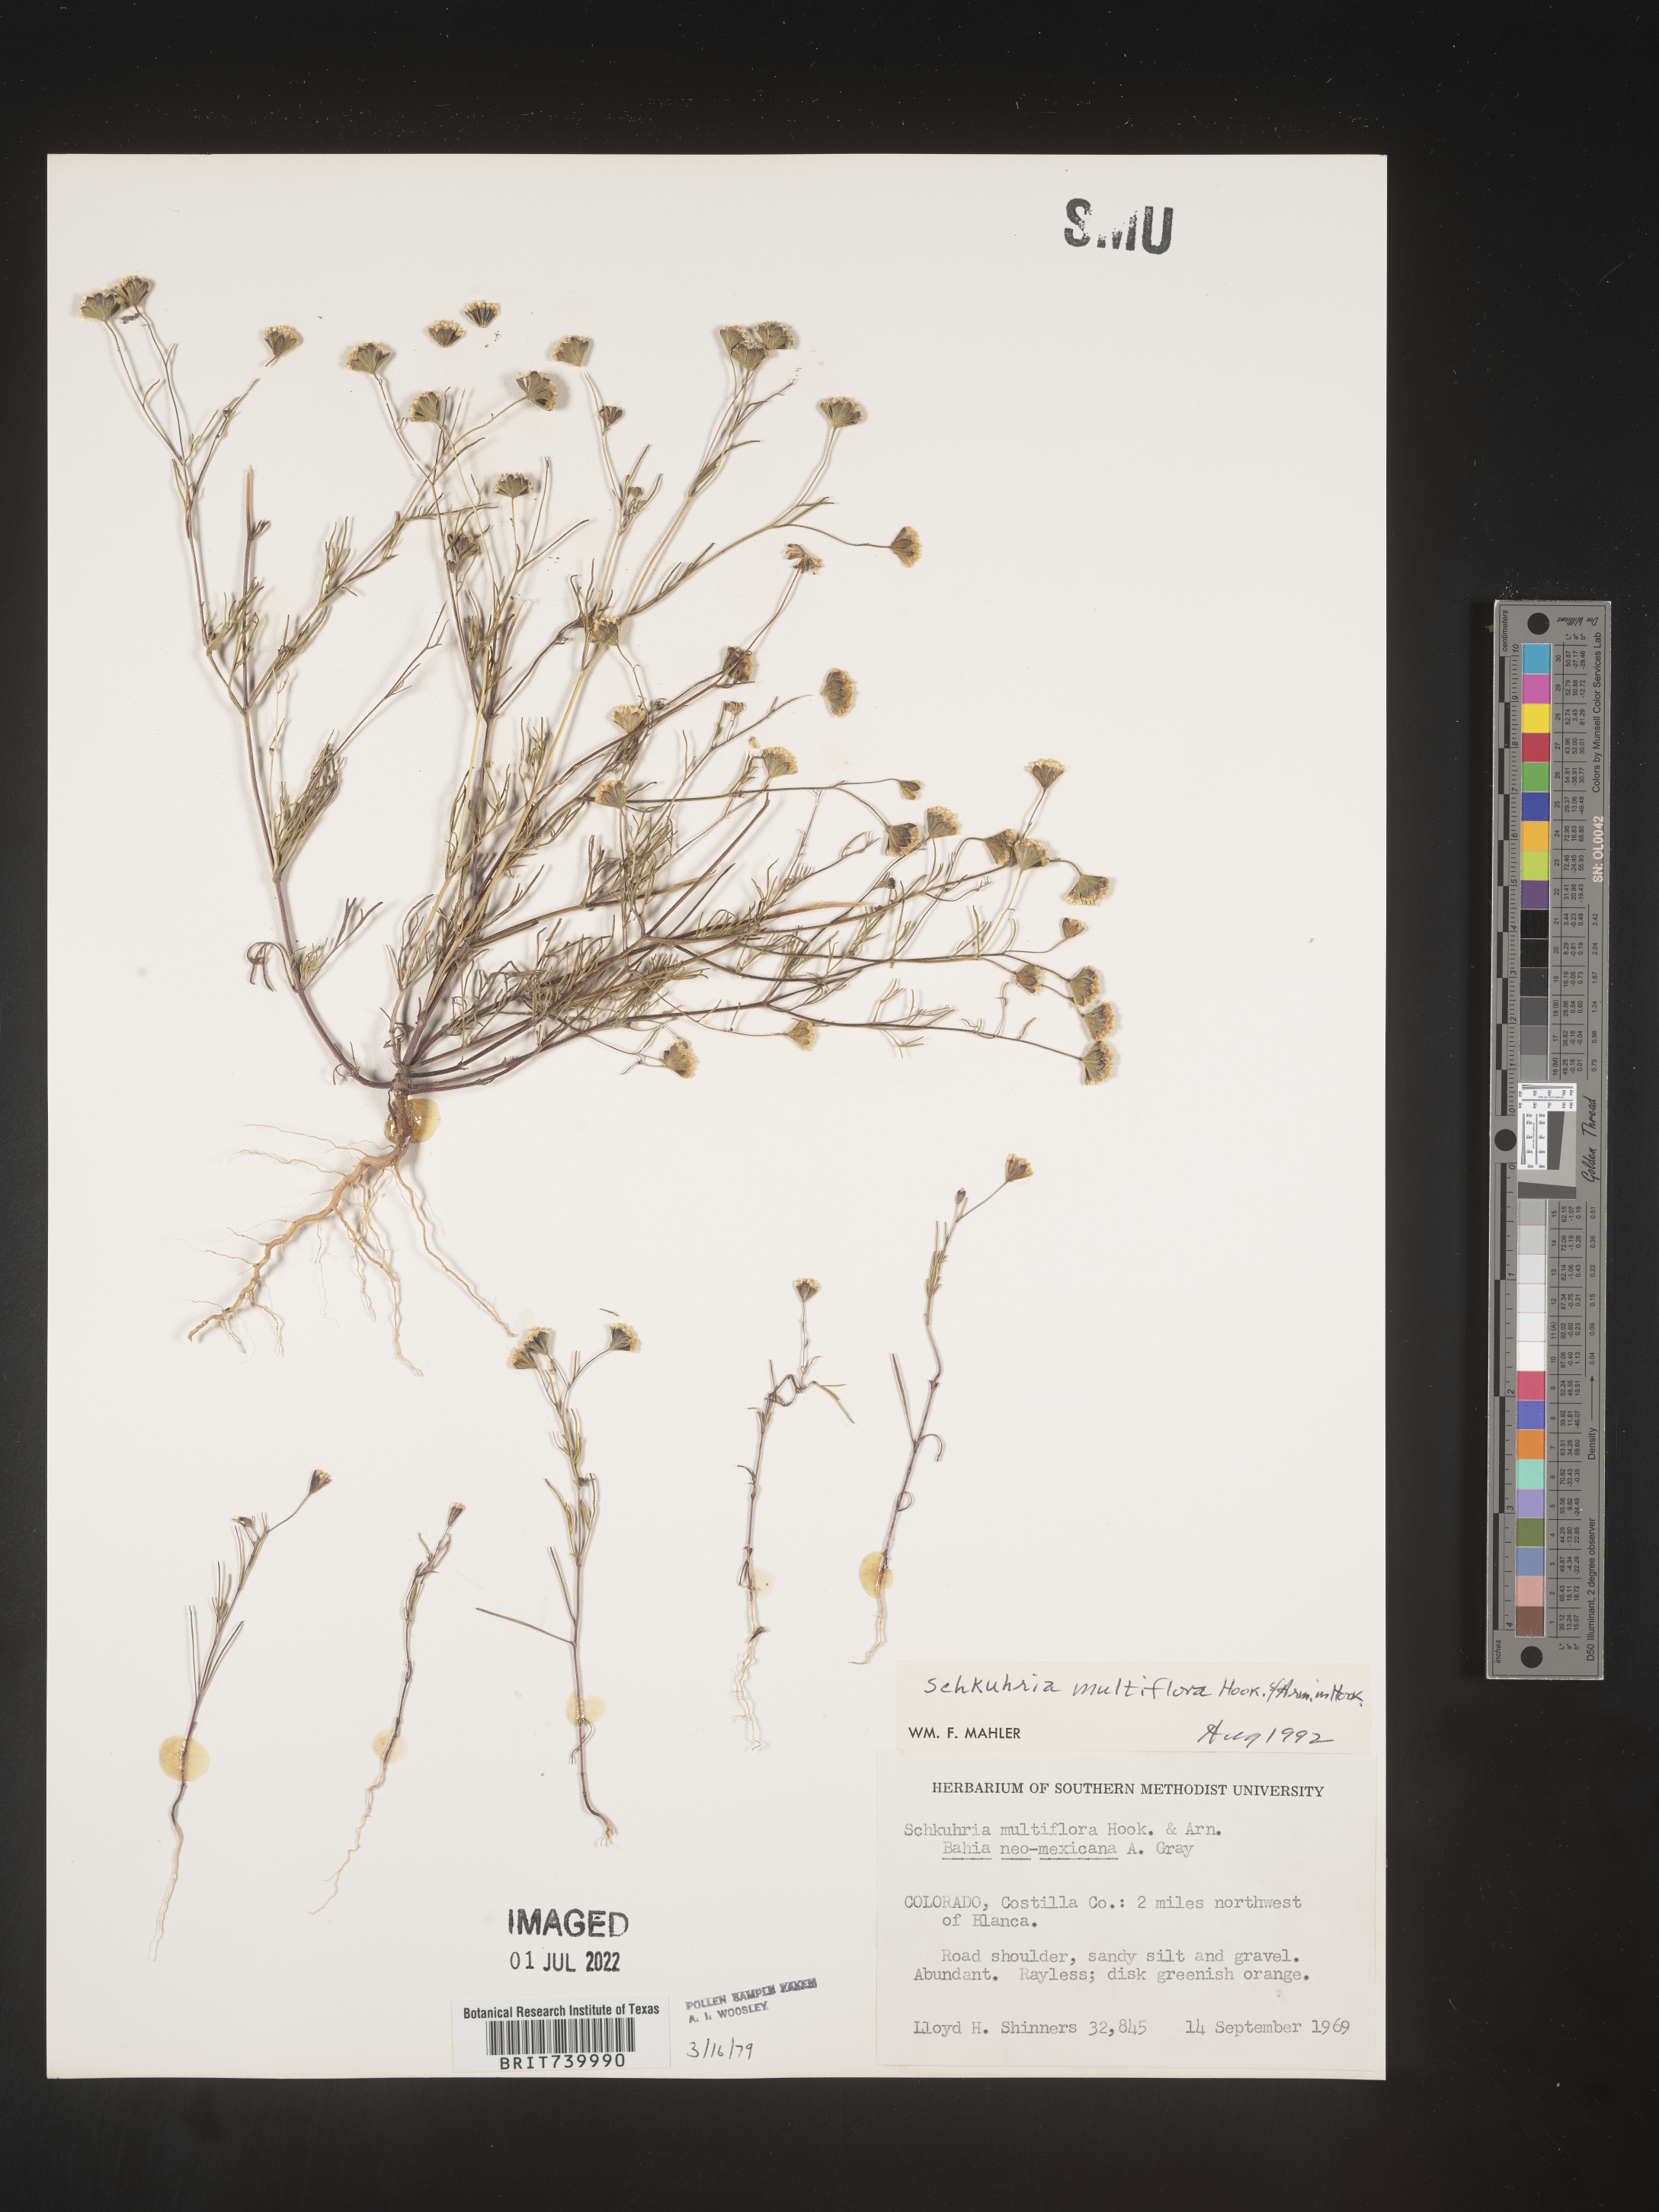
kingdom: Plantae
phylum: Tracheophyta
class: Magnoliopsida
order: Asterales
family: Asteraceae
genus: Schkuhria
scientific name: Schkuhria
